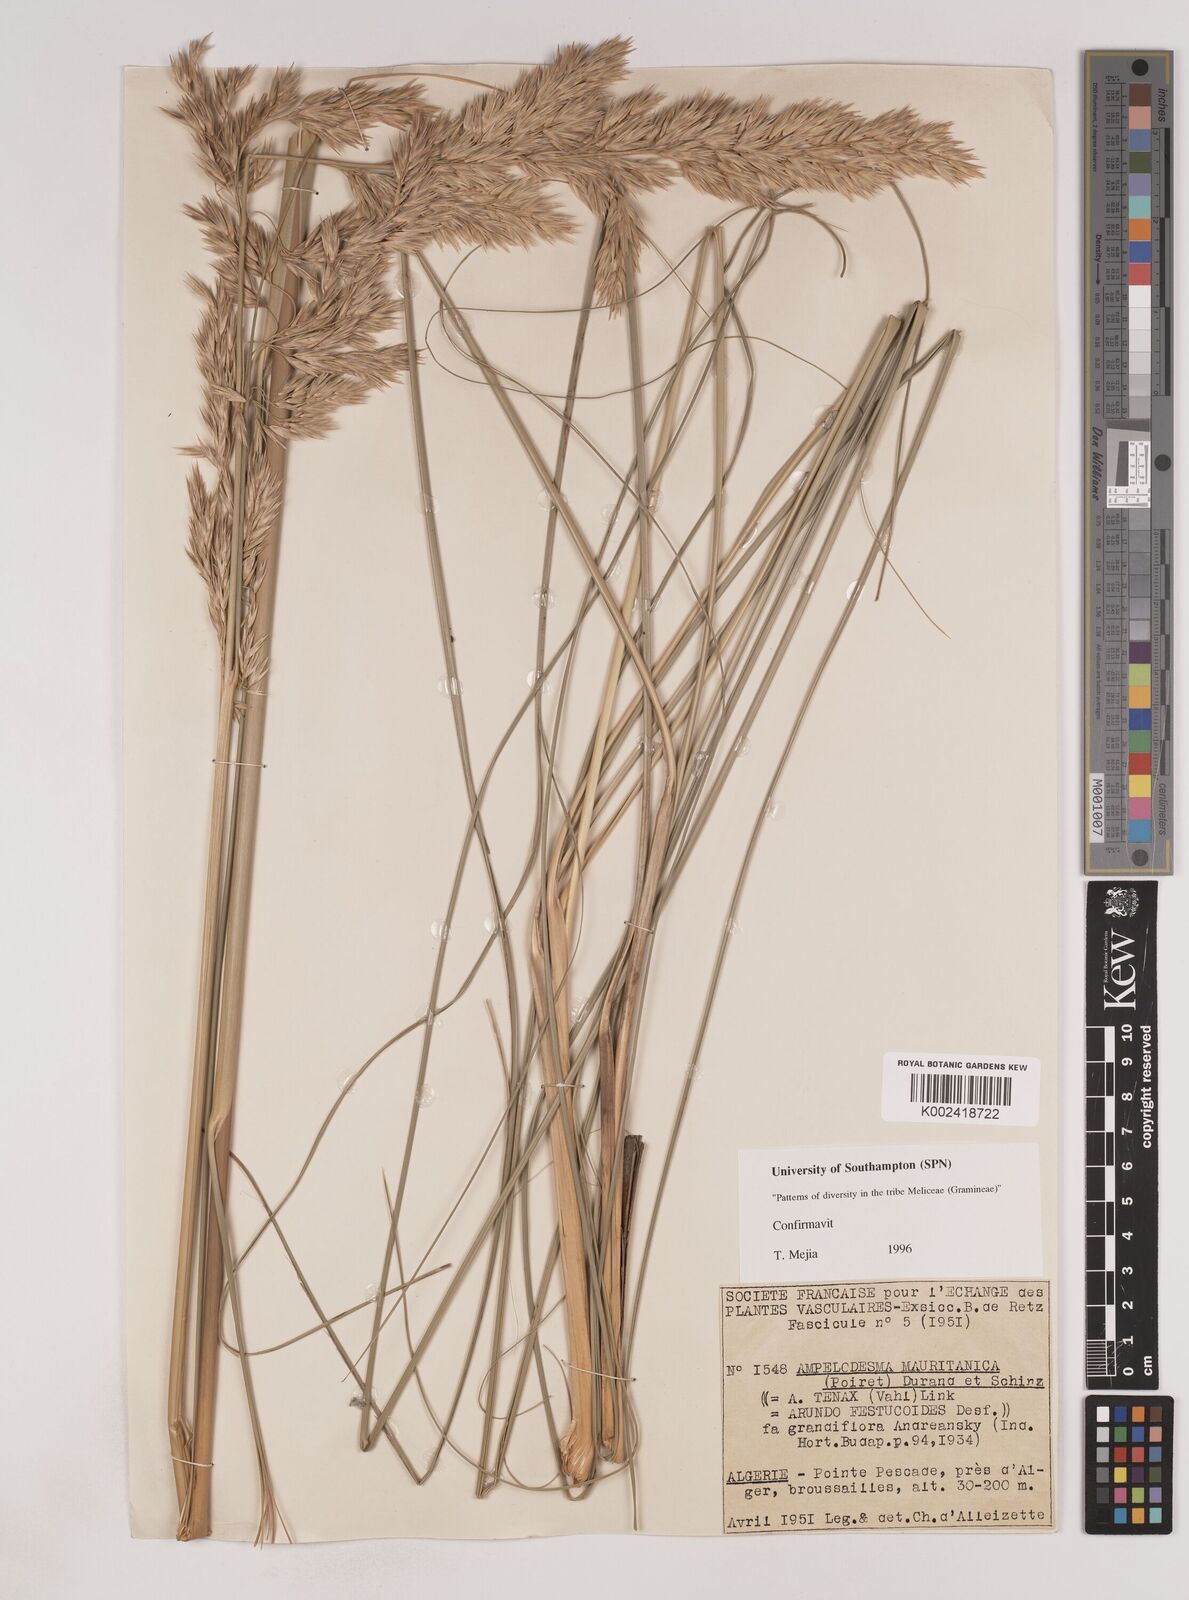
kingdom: Plantae
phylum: Tracheophyta
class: Liliopsida
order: Poales
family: Poaceae
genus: Ampelodesmos
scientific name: Ampelodesmos mauritanicus
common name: Mauritanian grass
